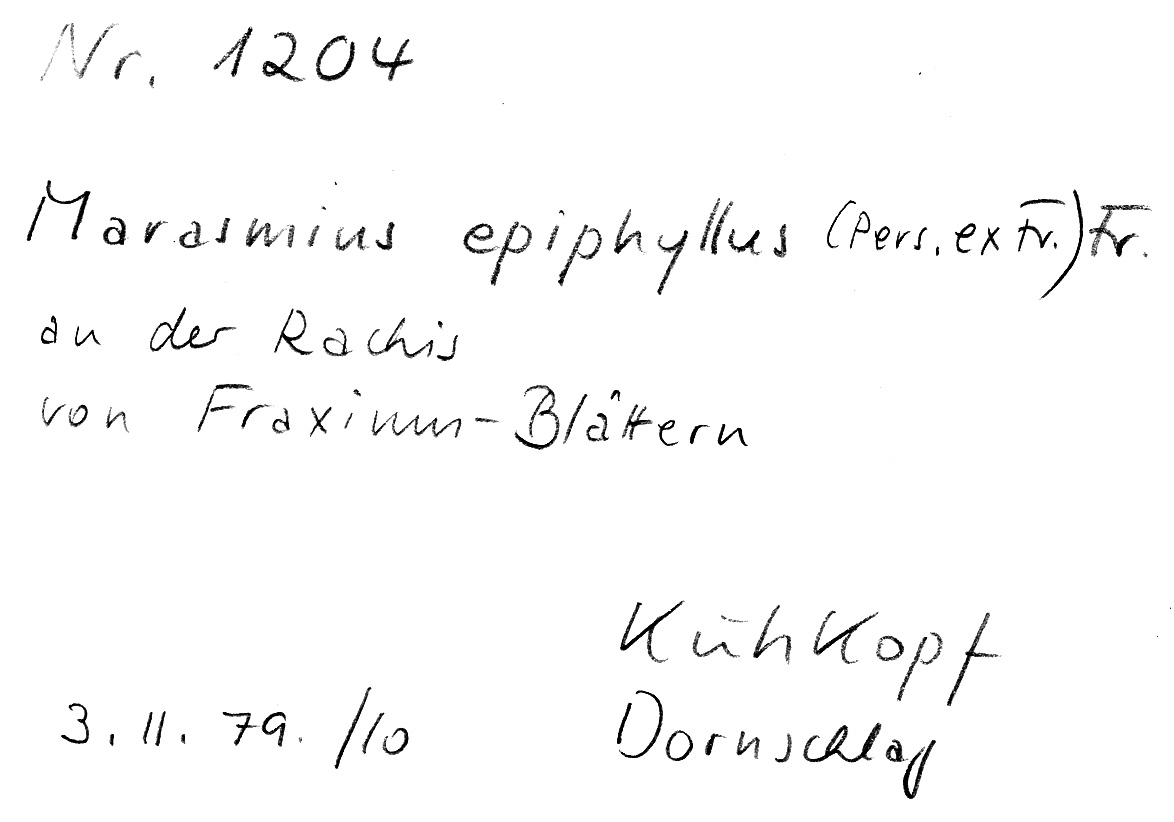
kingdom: Fungi
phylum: Basidiomycota
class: Agaricomycetes
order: Agaricales
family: Marasmiaceae
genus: Marasmius
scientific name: Marasmius epiphyllus
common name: Leaf parachute
